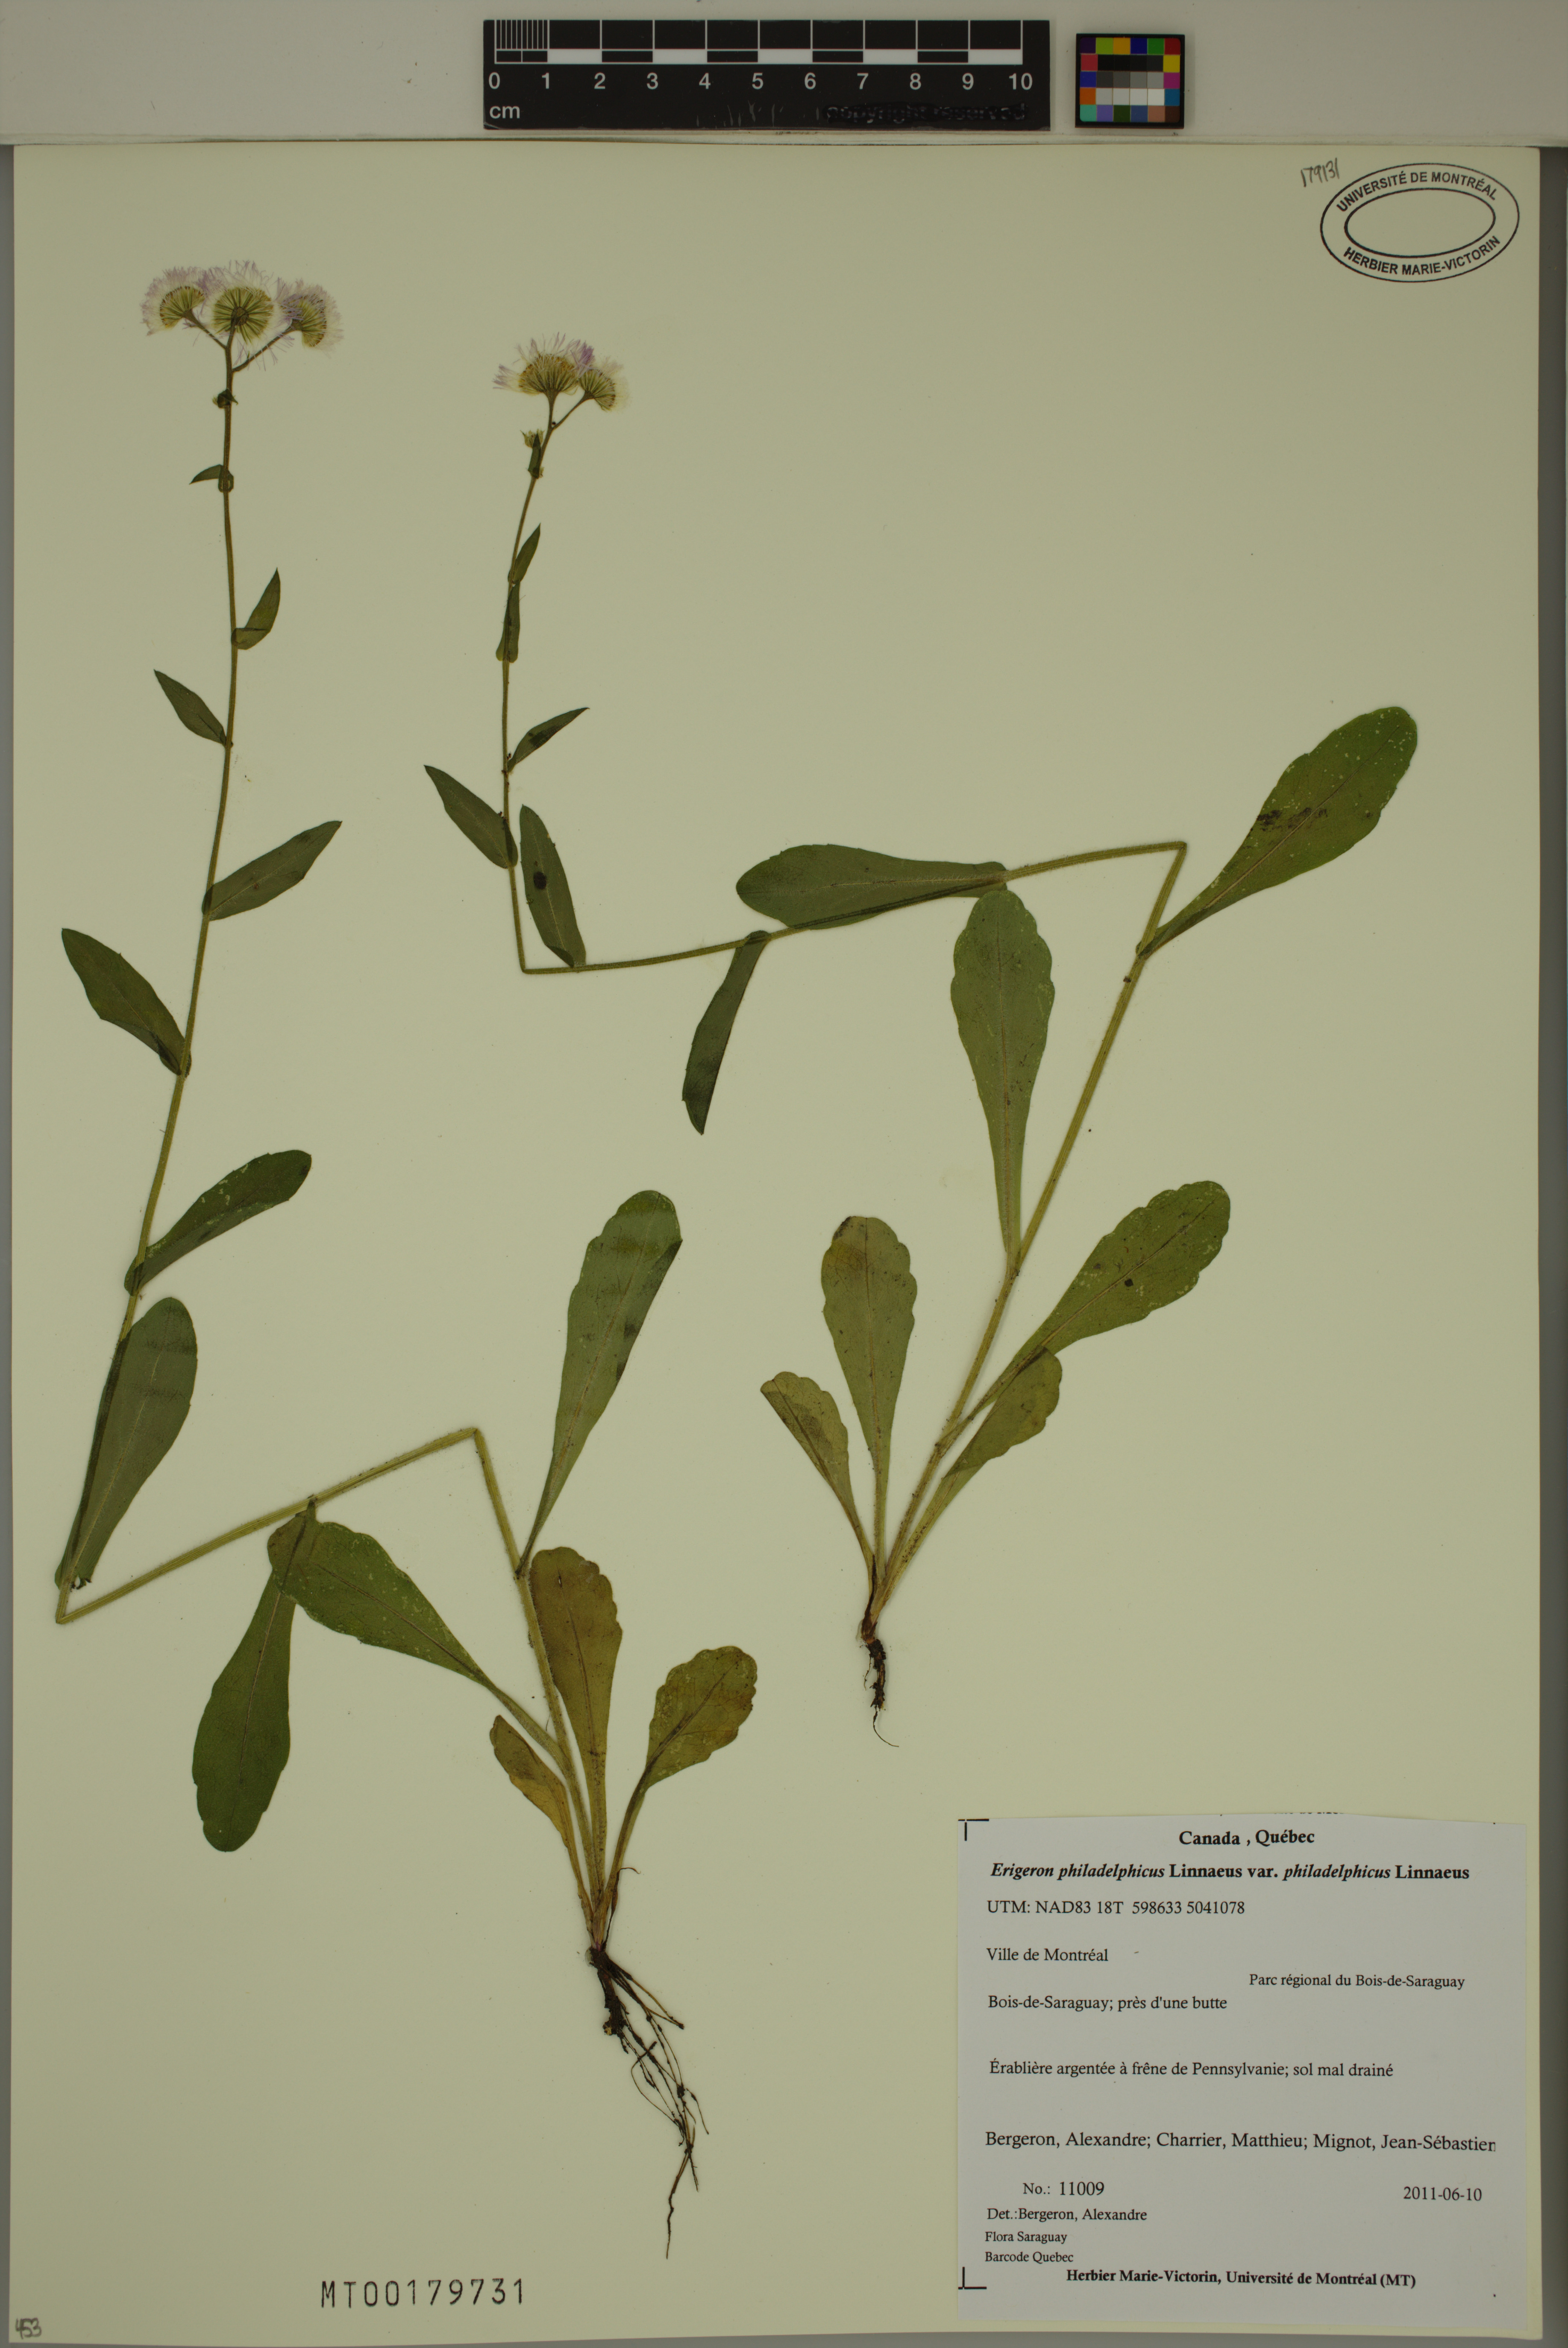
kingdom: Plantae
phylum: Tracheophyta
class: Magnoliopsida
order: Asterales
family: Asteraceae
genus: Erigeron
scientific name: Erigeron philadelphicus
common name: Robin's-plantain
